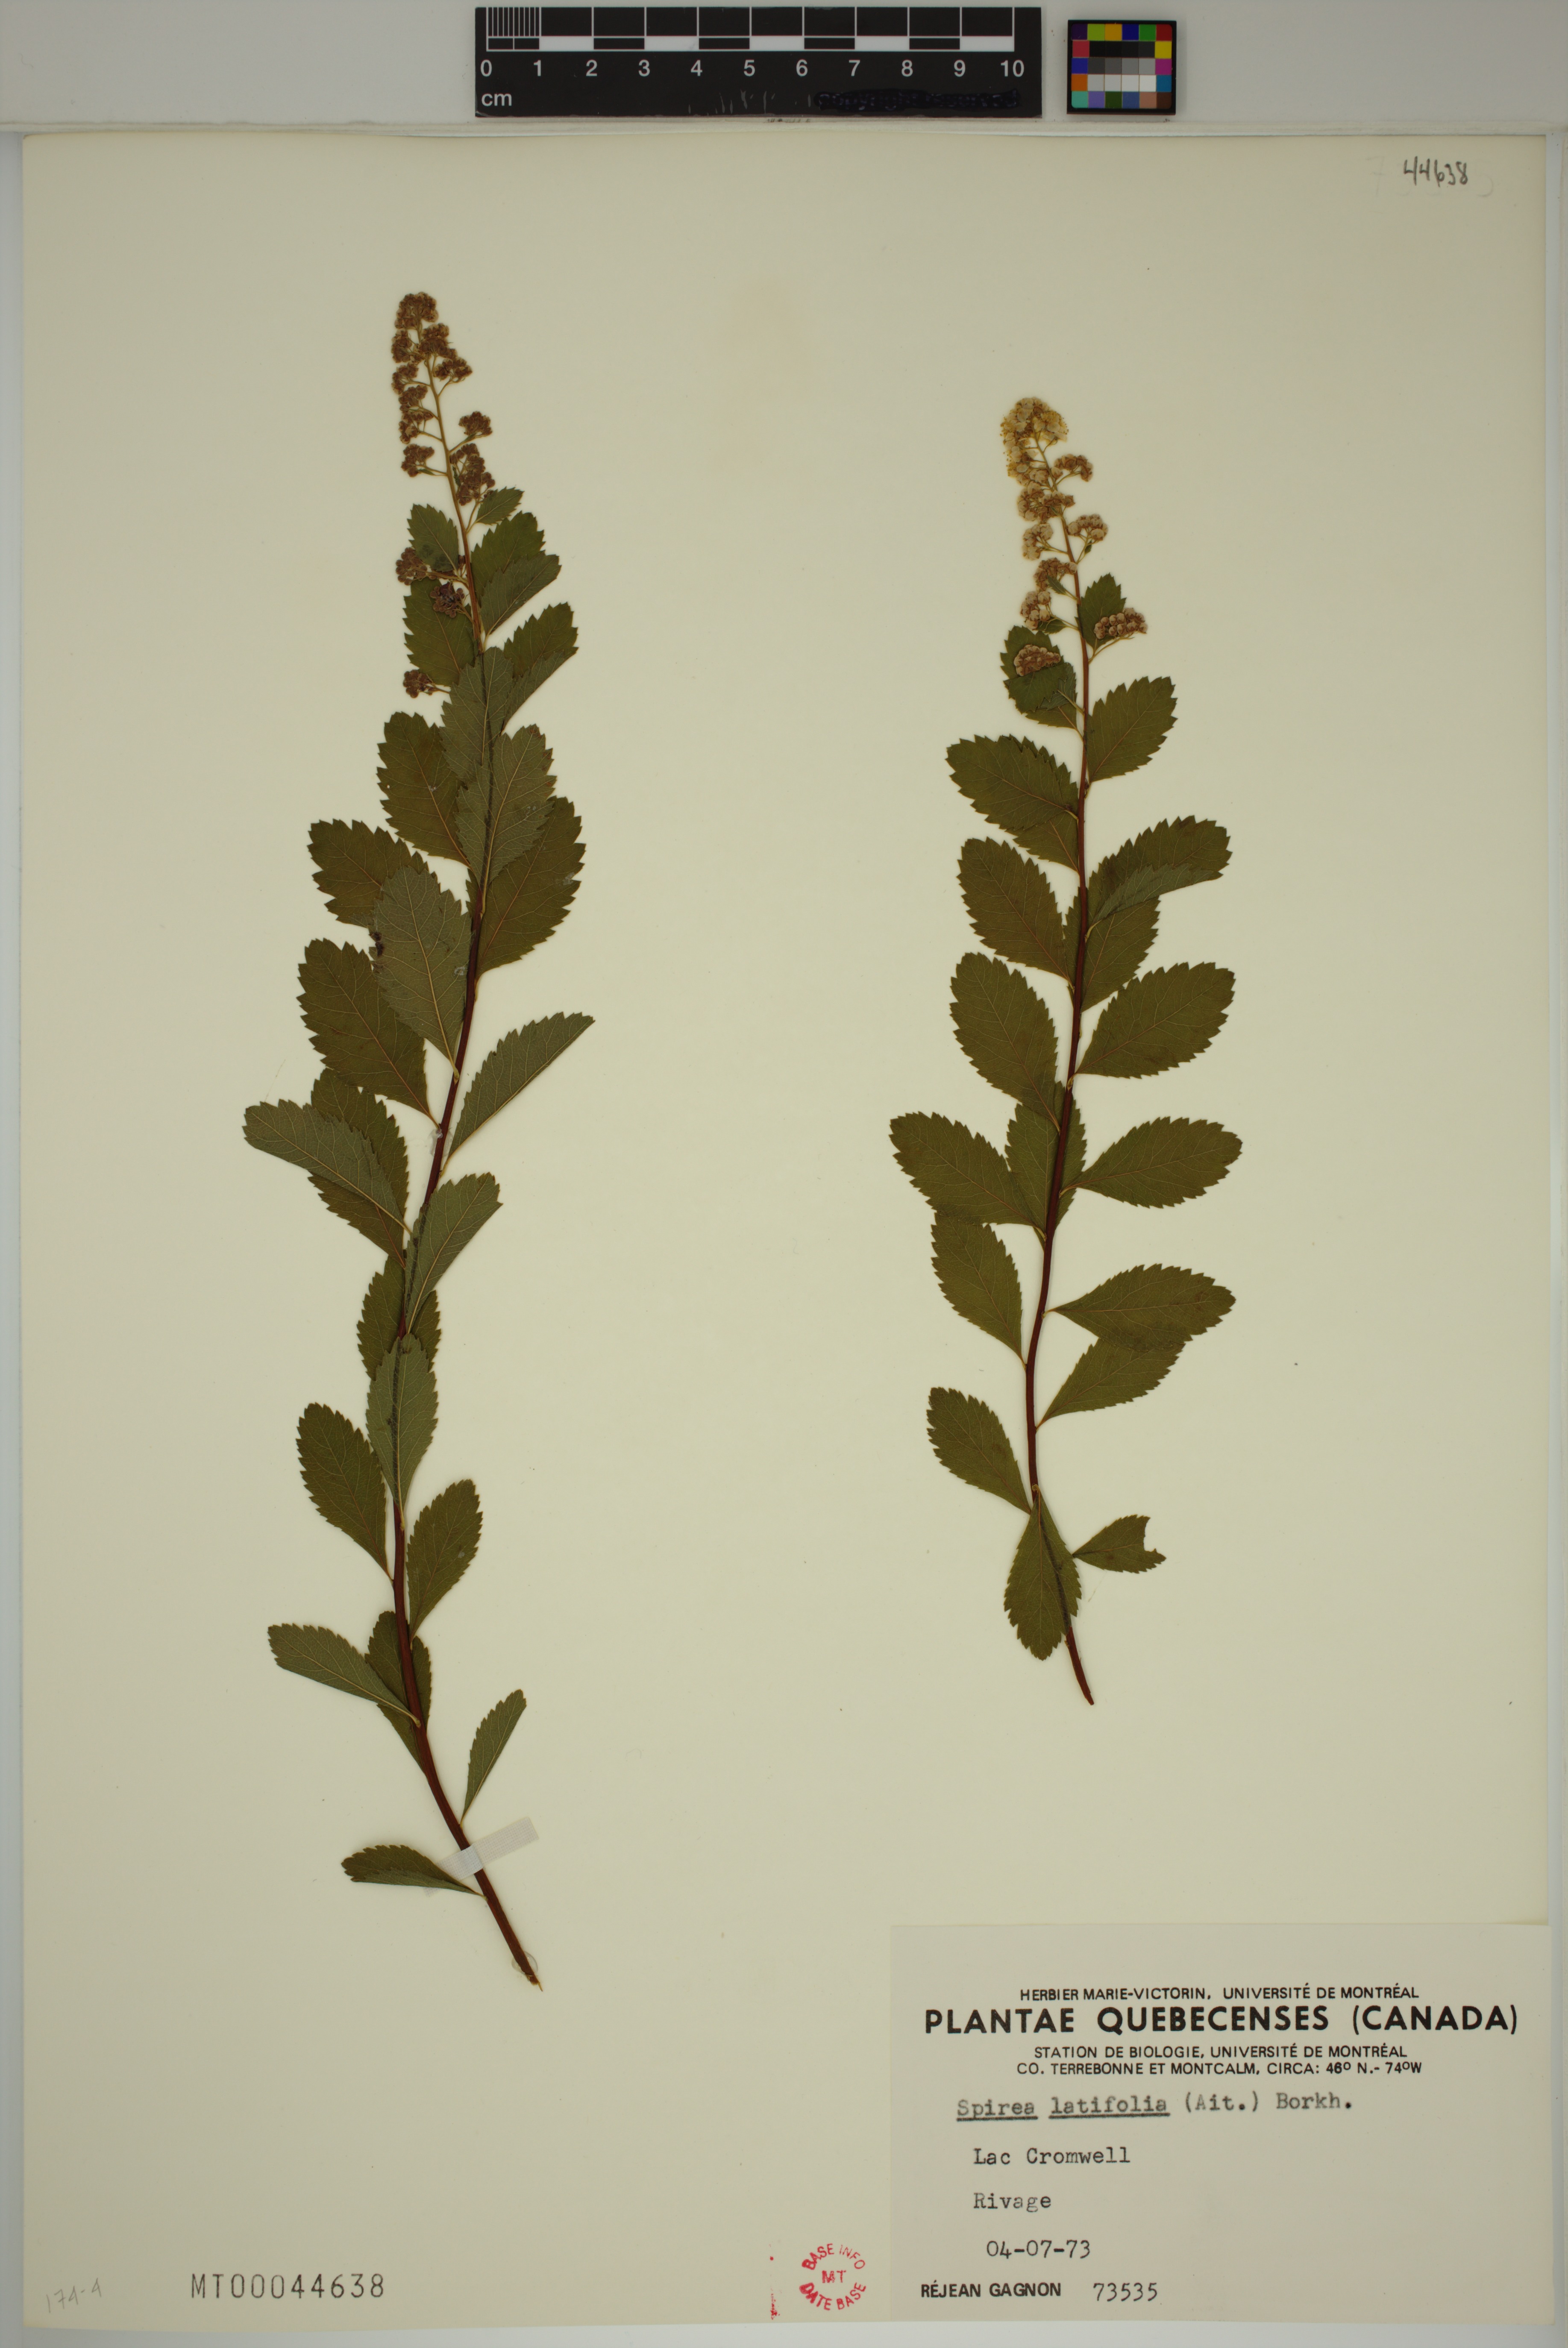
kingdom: Plantae
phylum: Tracheophyta
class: Magnoliopsida
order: Rosales
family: Rosaceae
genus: Spiraea
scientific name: Spiraea alba
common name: Pale bridewort
